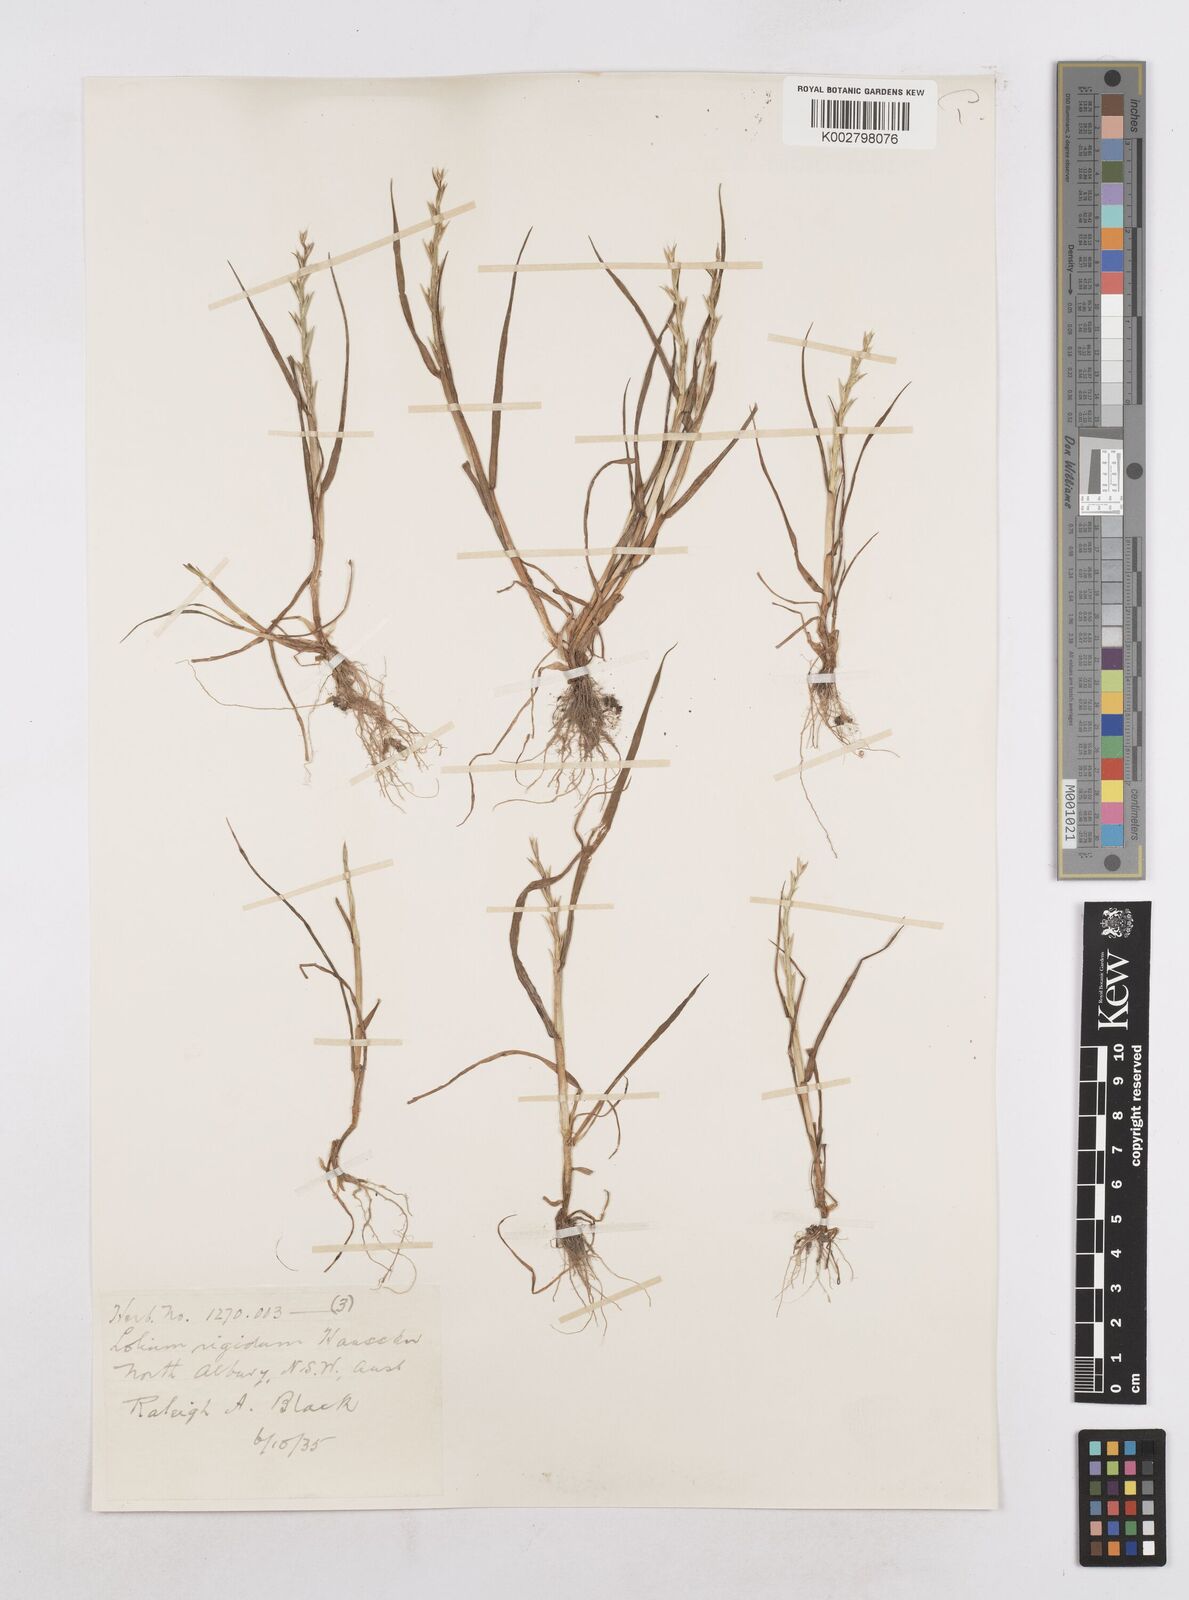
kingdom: Plantae
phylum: Tracheophyta
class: Liliopsida
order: Poales
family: Poaceae
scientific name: Poaceae
